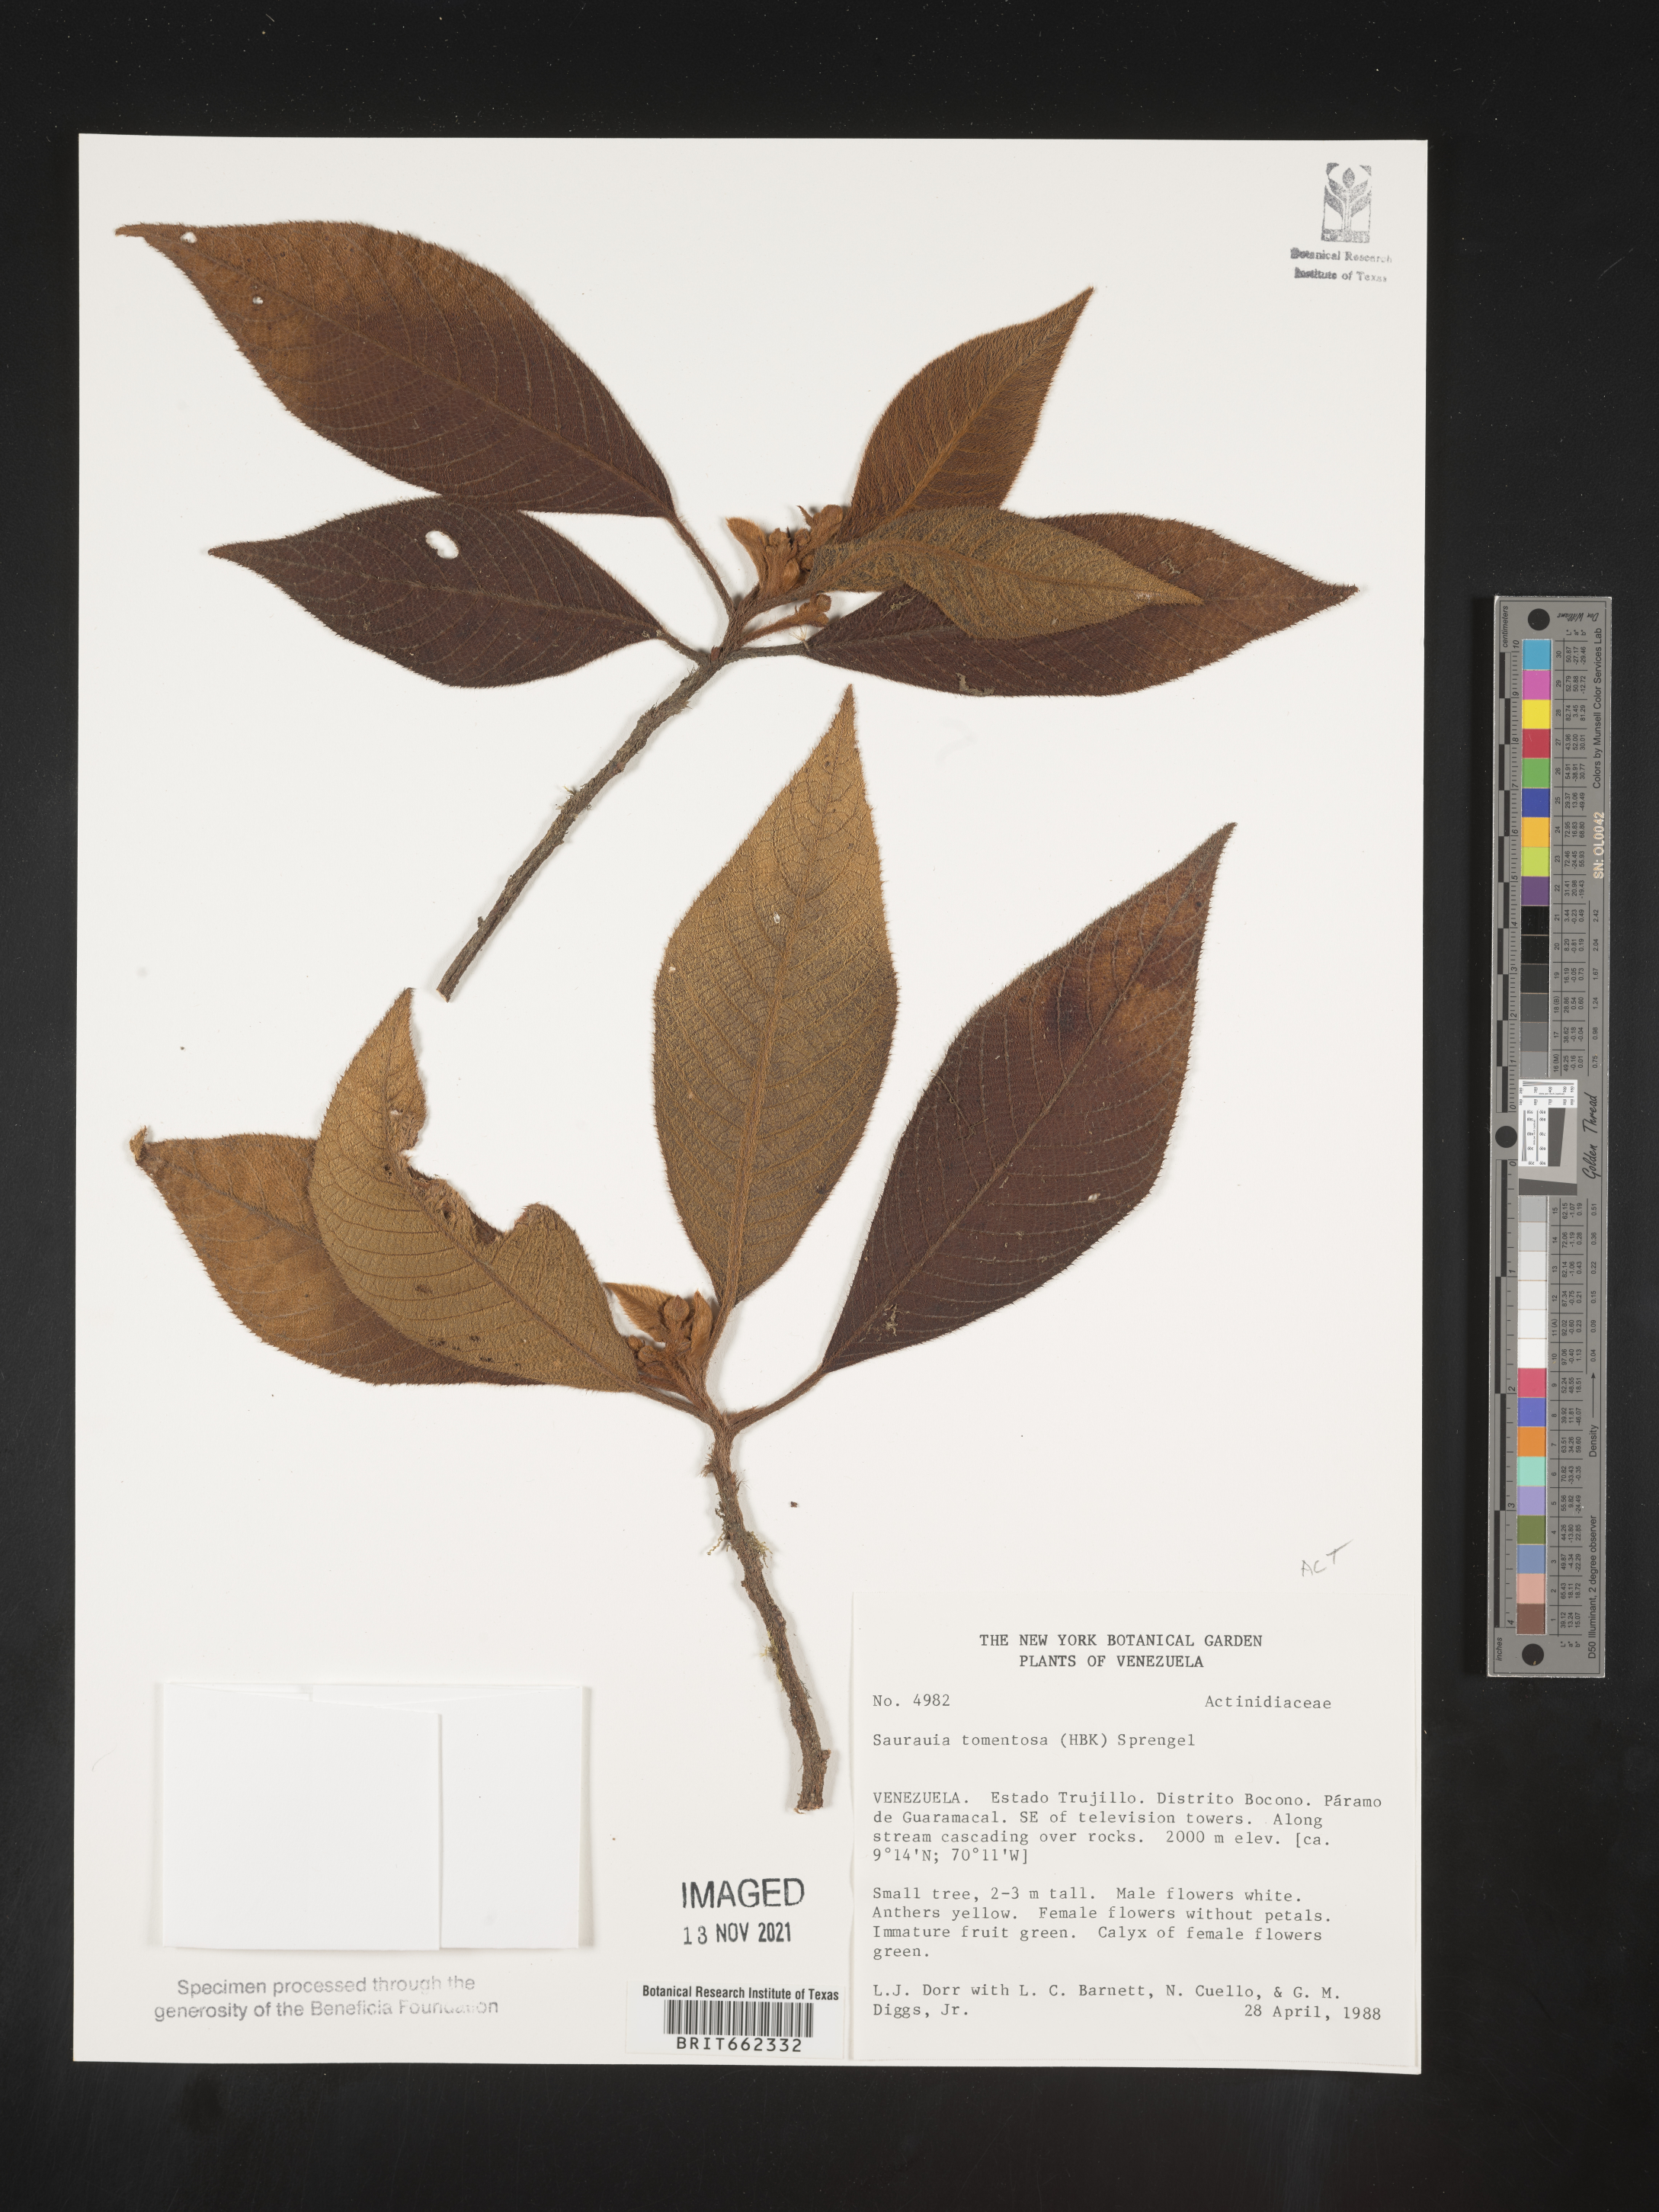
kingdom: Plantae
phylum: Tracheophyta
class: Magnoliopsida
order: Ericales
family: Actinidiaceae
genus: Saurauia
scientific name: Saurauia
